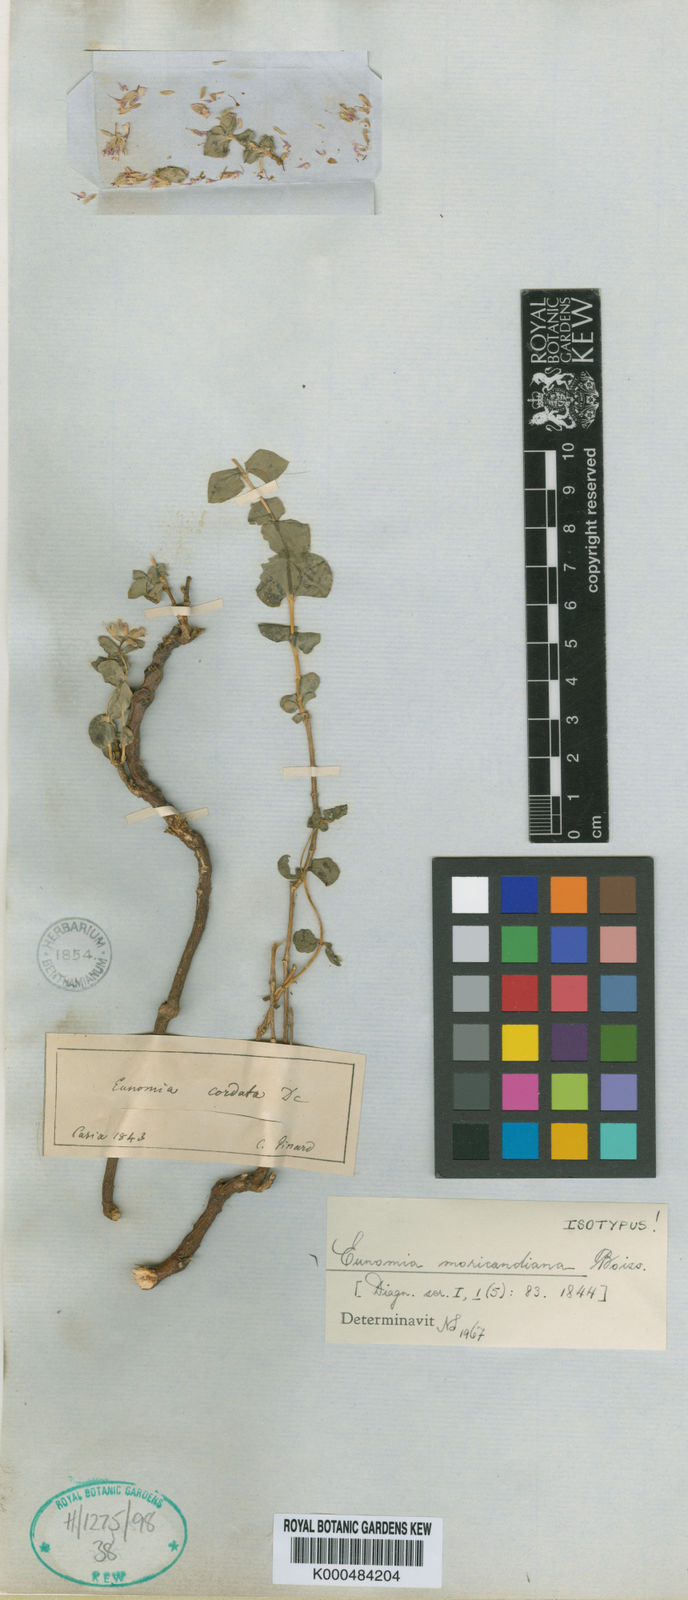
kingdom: Plantae
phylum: Tracheophyta
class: Magnoliopsida
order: Brassicales
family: Brassicaceae
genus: Aethionema
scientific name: Aethionema cordatum
